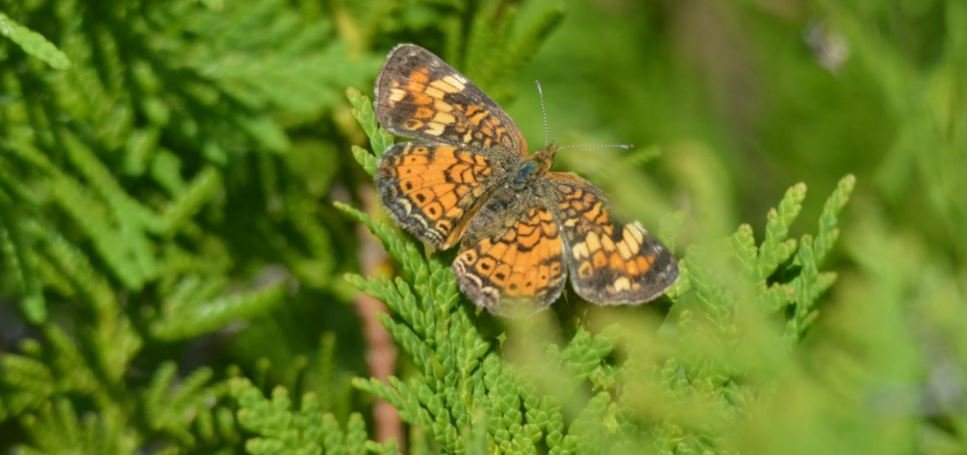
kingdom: Animalia
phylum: Arthropoda
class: Insecta
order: Lepidoptera
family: Nymphalidae
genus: Phyciodes
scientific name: Phyciodes tharos
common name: Pearl Crescent
